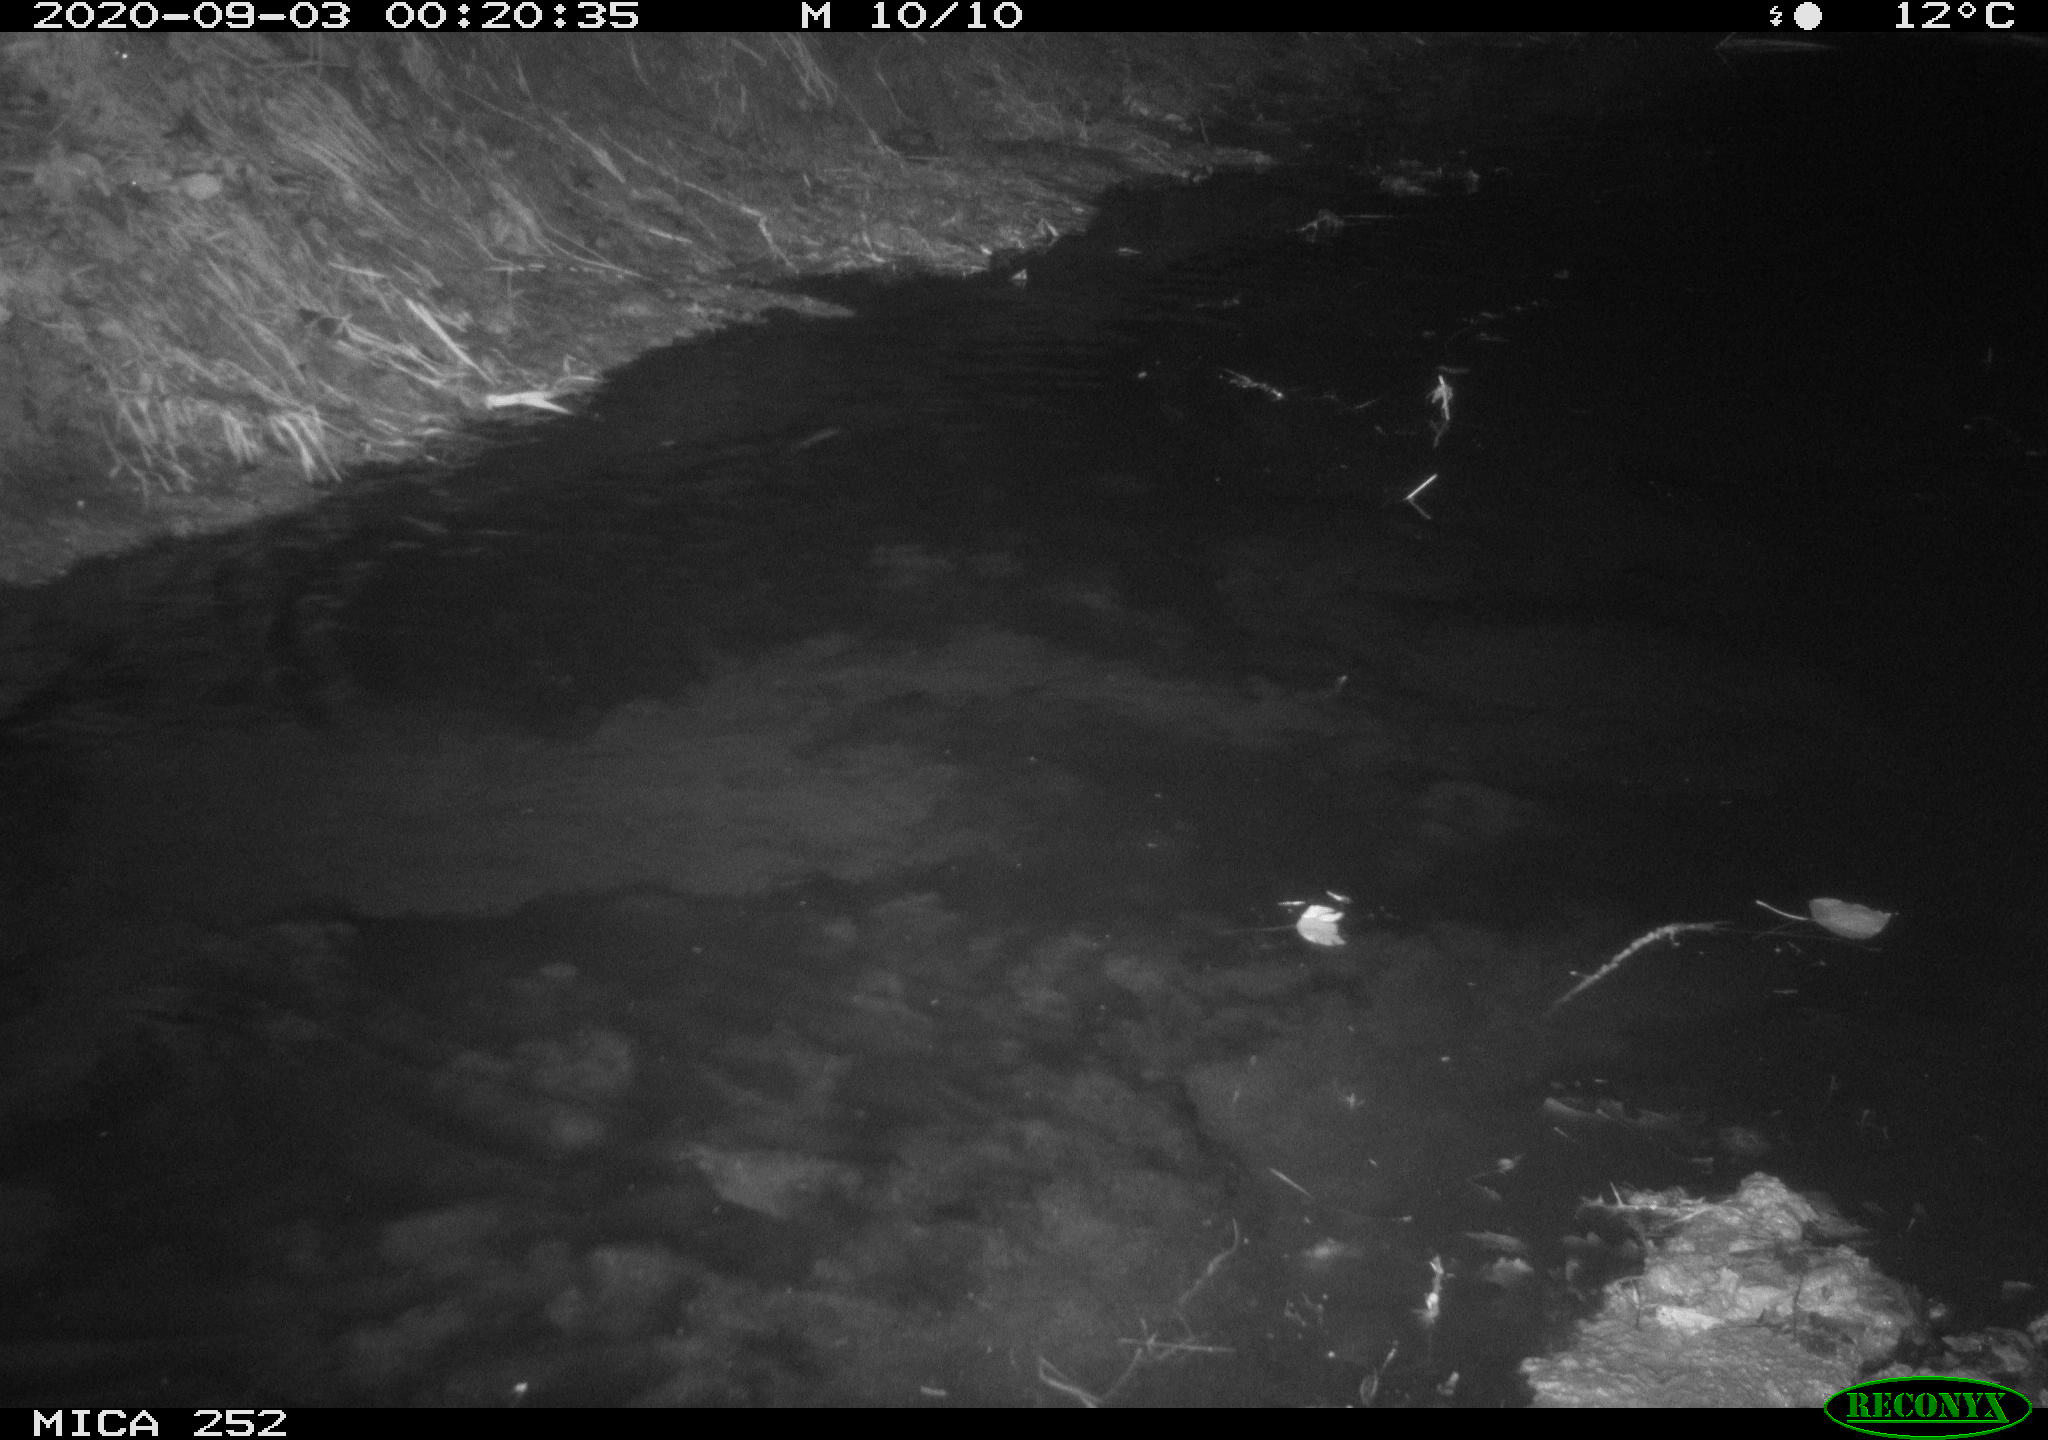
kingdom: Animalia
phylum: Chordata
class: Mammalia
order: Rodentia
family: Castoridae
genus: Castor
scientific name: Castor fiber
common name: Eurasian beaver
